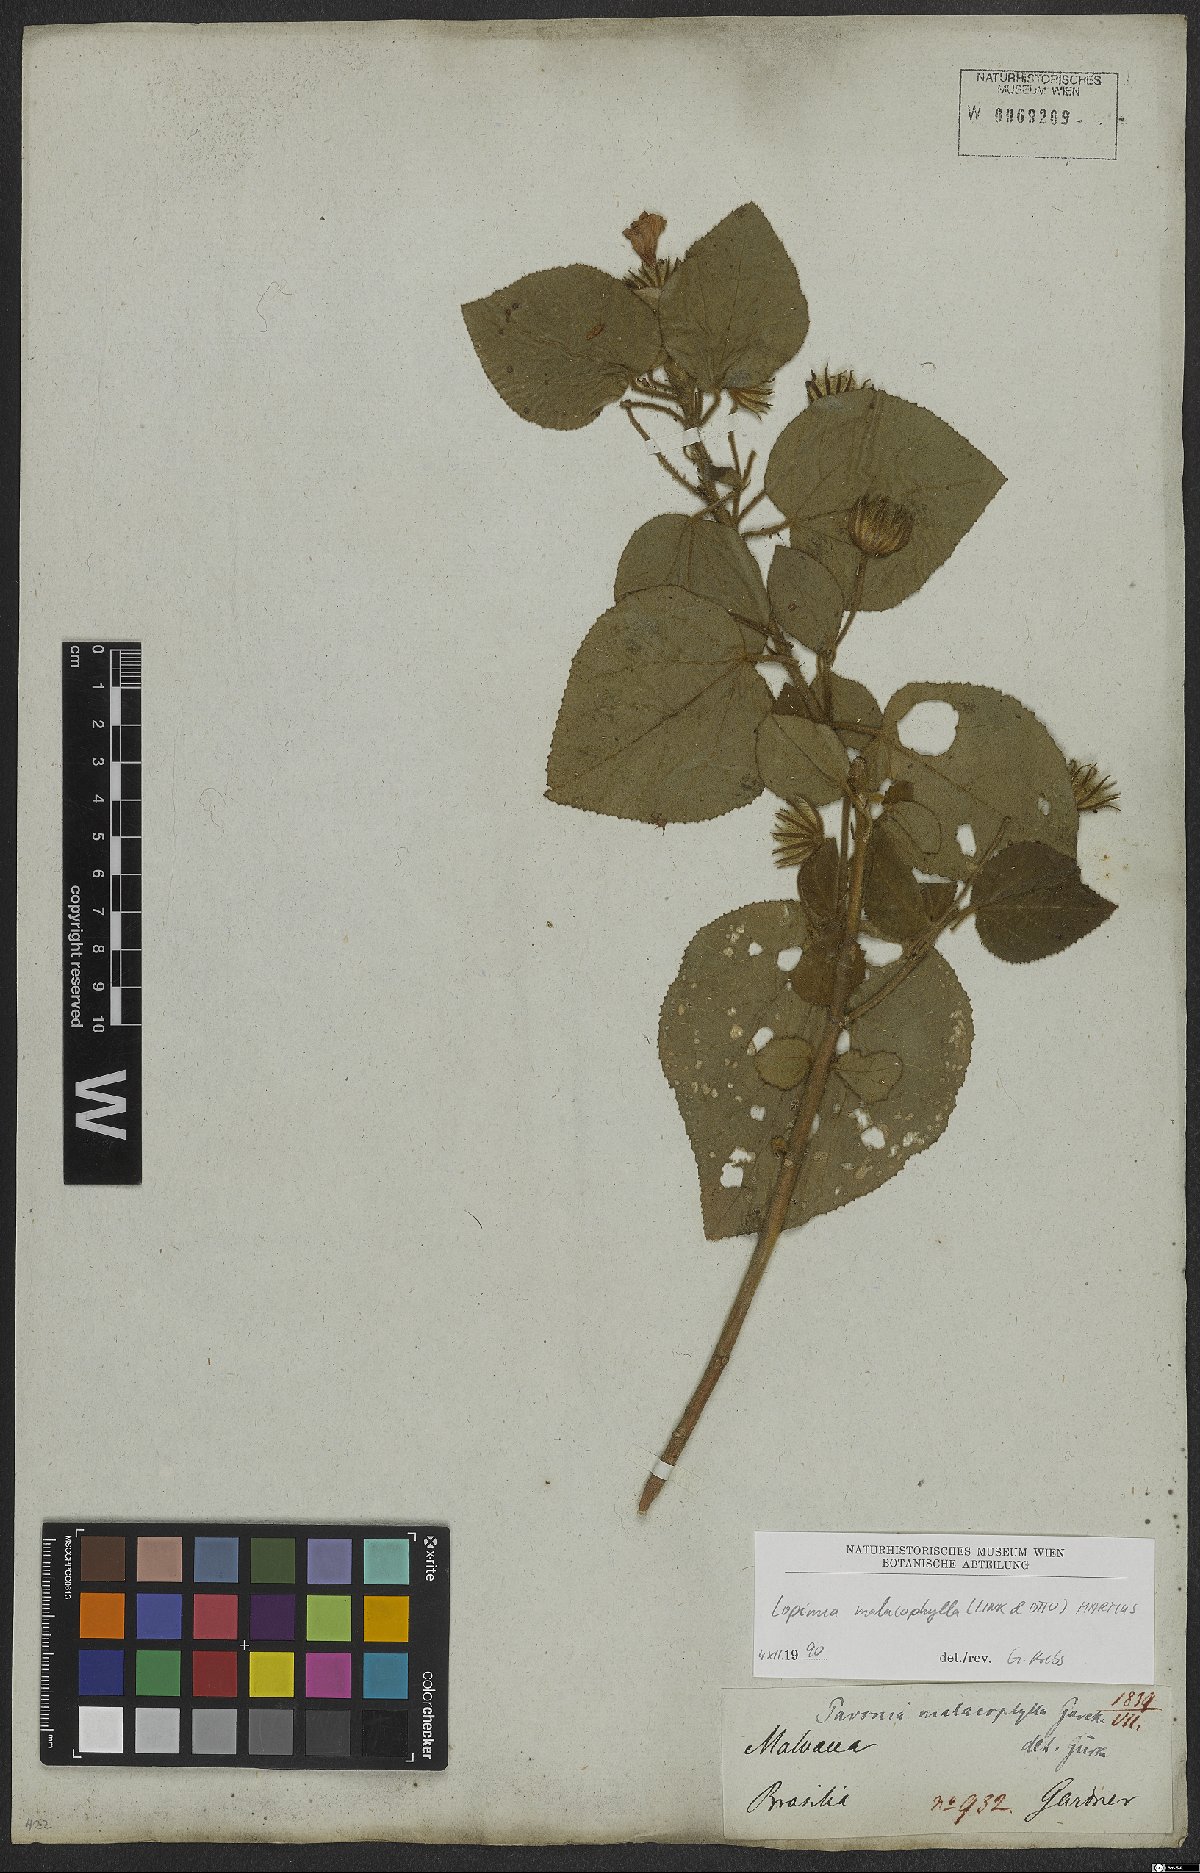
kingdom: Plantae
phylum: Tracheophyta
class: Magnoliopsida
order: Malvales
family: Malvaceae
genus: Pavonia
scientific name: Pavonia malacophylla
